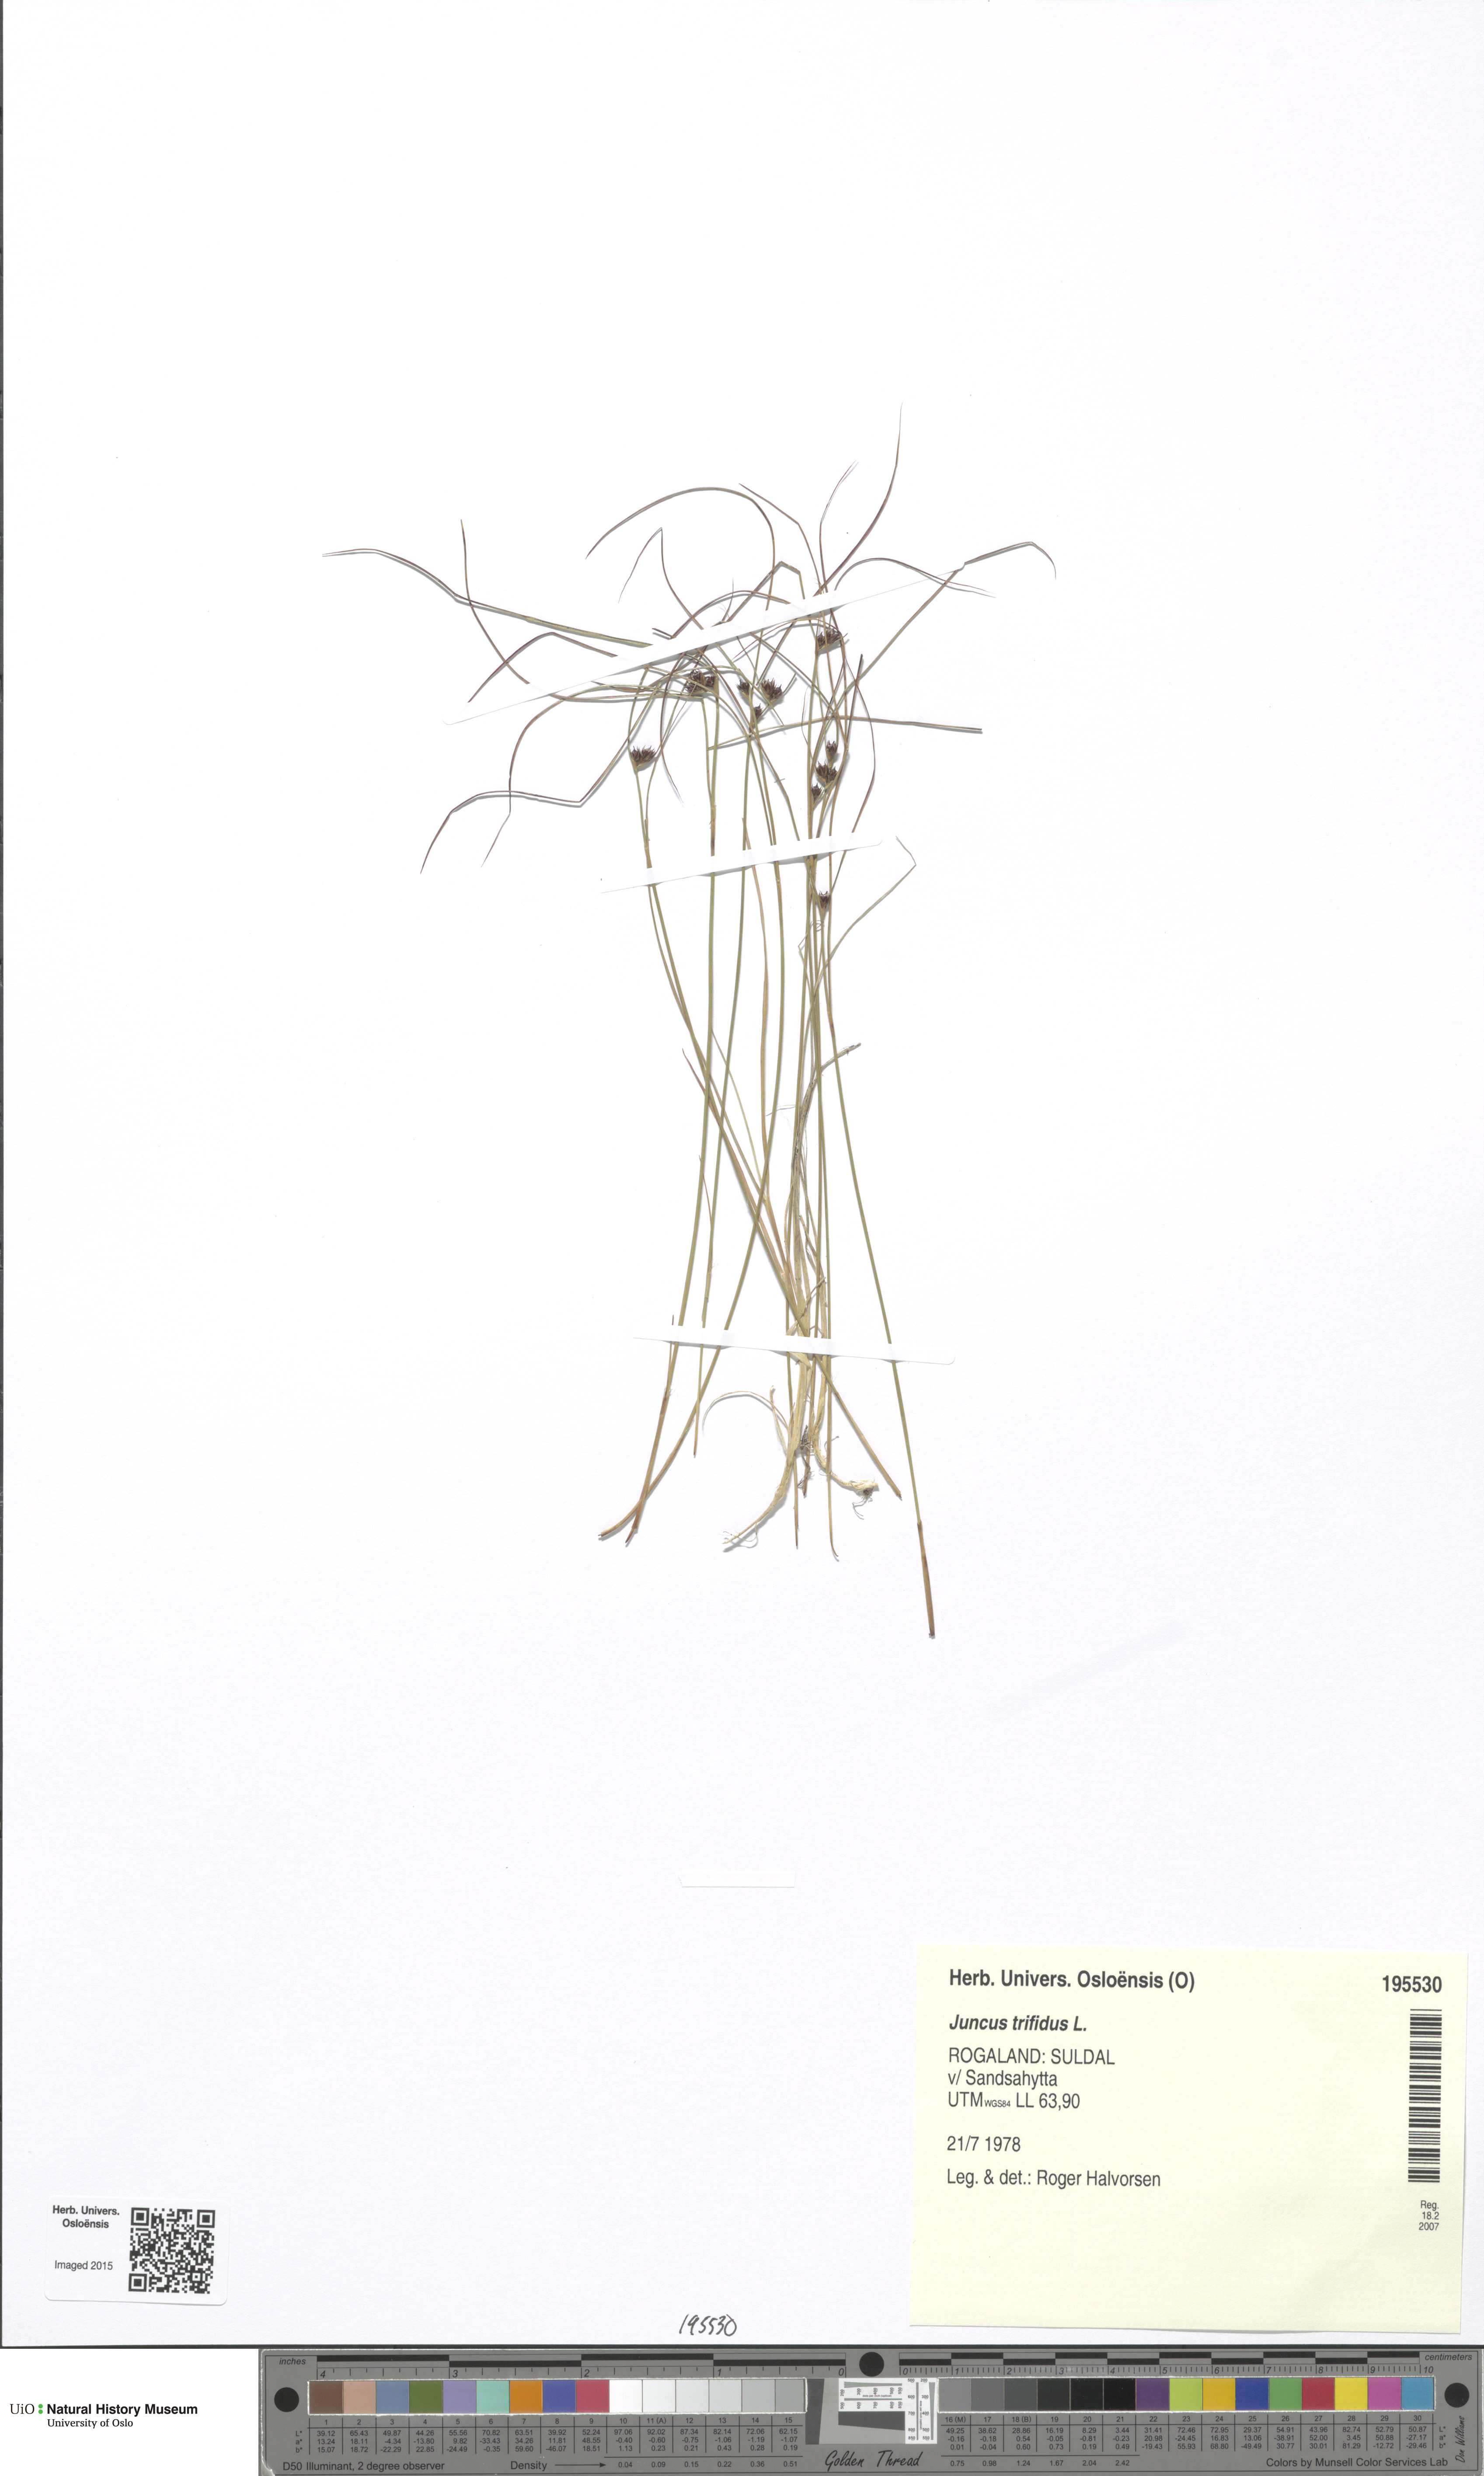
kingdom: Plantae
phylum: Tracheophyta
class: Liliopsida
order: Poales
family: Juncaceae
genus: Oreojuncus
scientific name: Oreojuncus trifidus
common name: Highland rush
